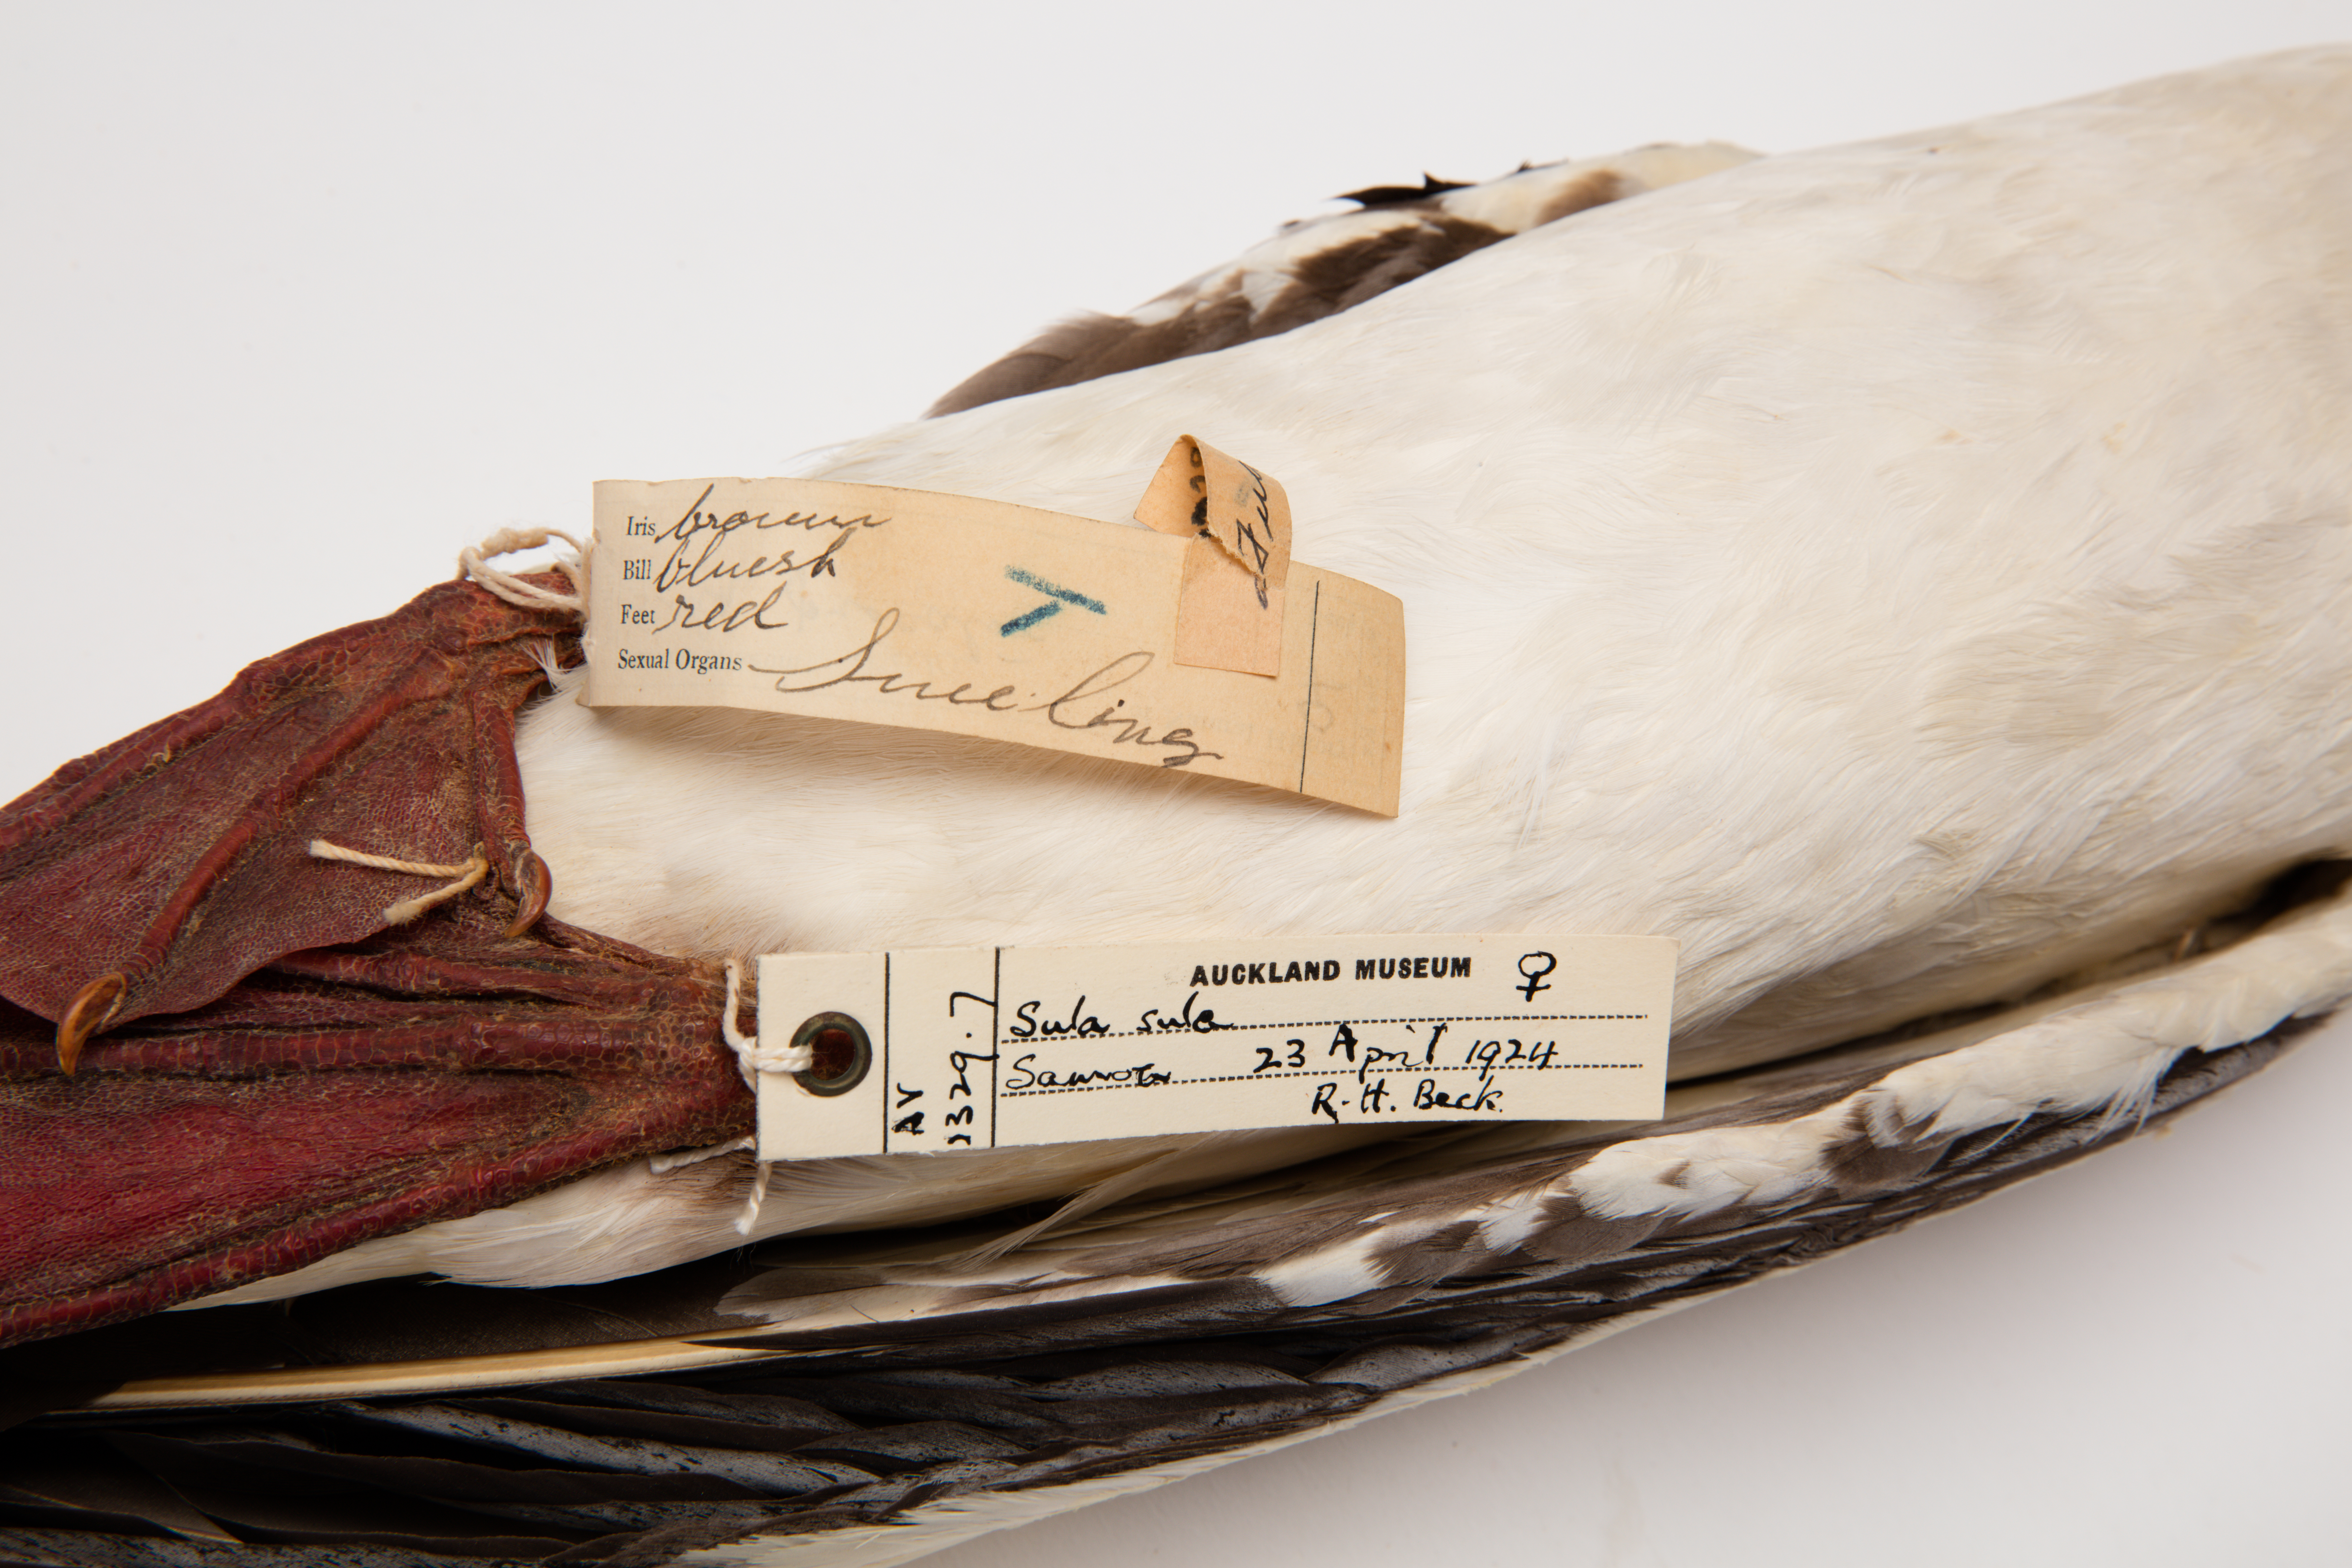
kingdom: Animalia
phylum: Chordata
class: Aves
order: Suliformes
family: Sulidae
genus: Sula
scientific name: Sula sula
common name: Red-footed booby
